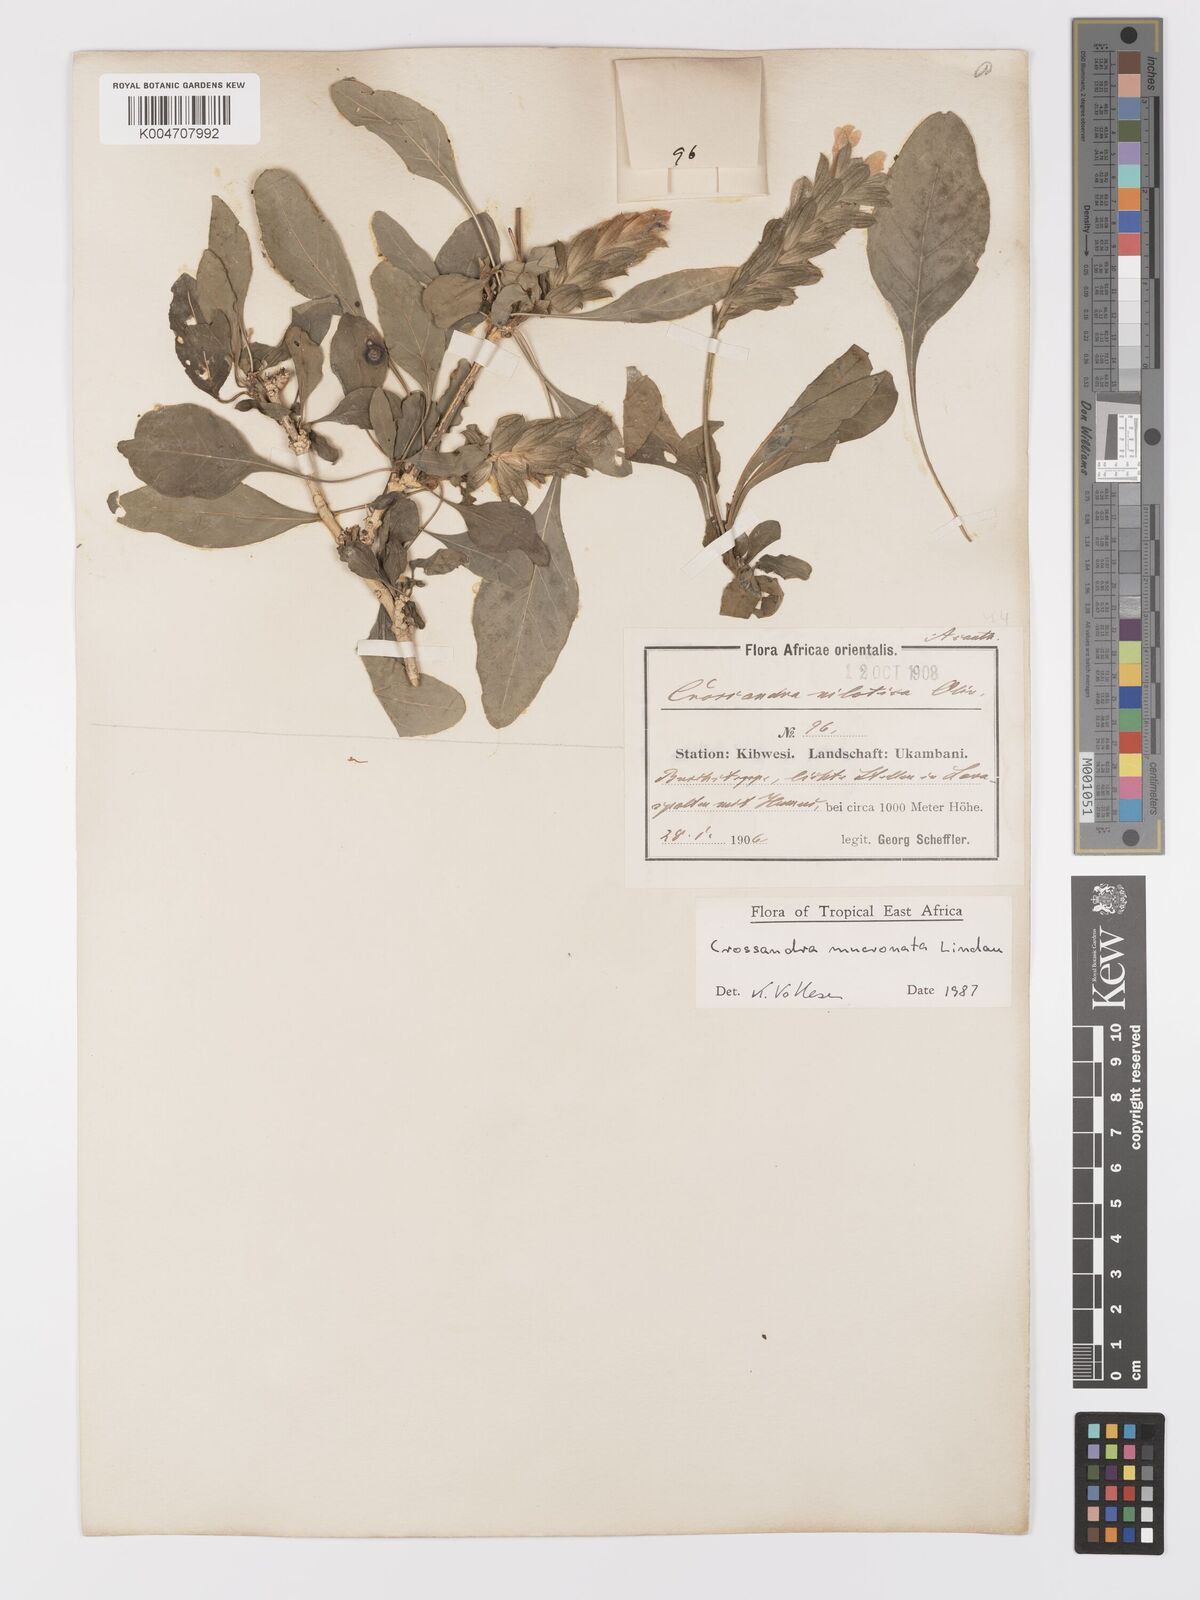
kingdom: Plantae
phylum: Tracheophyta
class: Magnoliopsida
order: Lamiales
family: Acanthaceae
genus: Crossandra
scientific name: Crossandra mucronata
